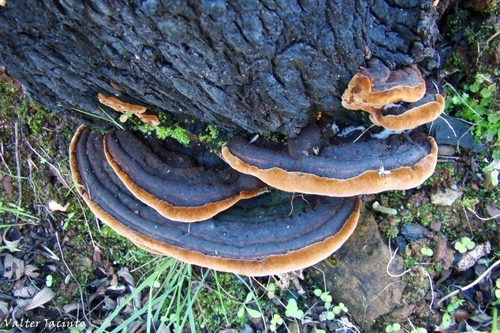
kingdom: Fungi
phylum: Basidiomycota
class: Agaricomycetes
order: Hymenochaetales
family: Hymenochaetaceae
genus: Fuscoporia
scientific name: Fuscoporia torulosa
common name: Tufted bracket
